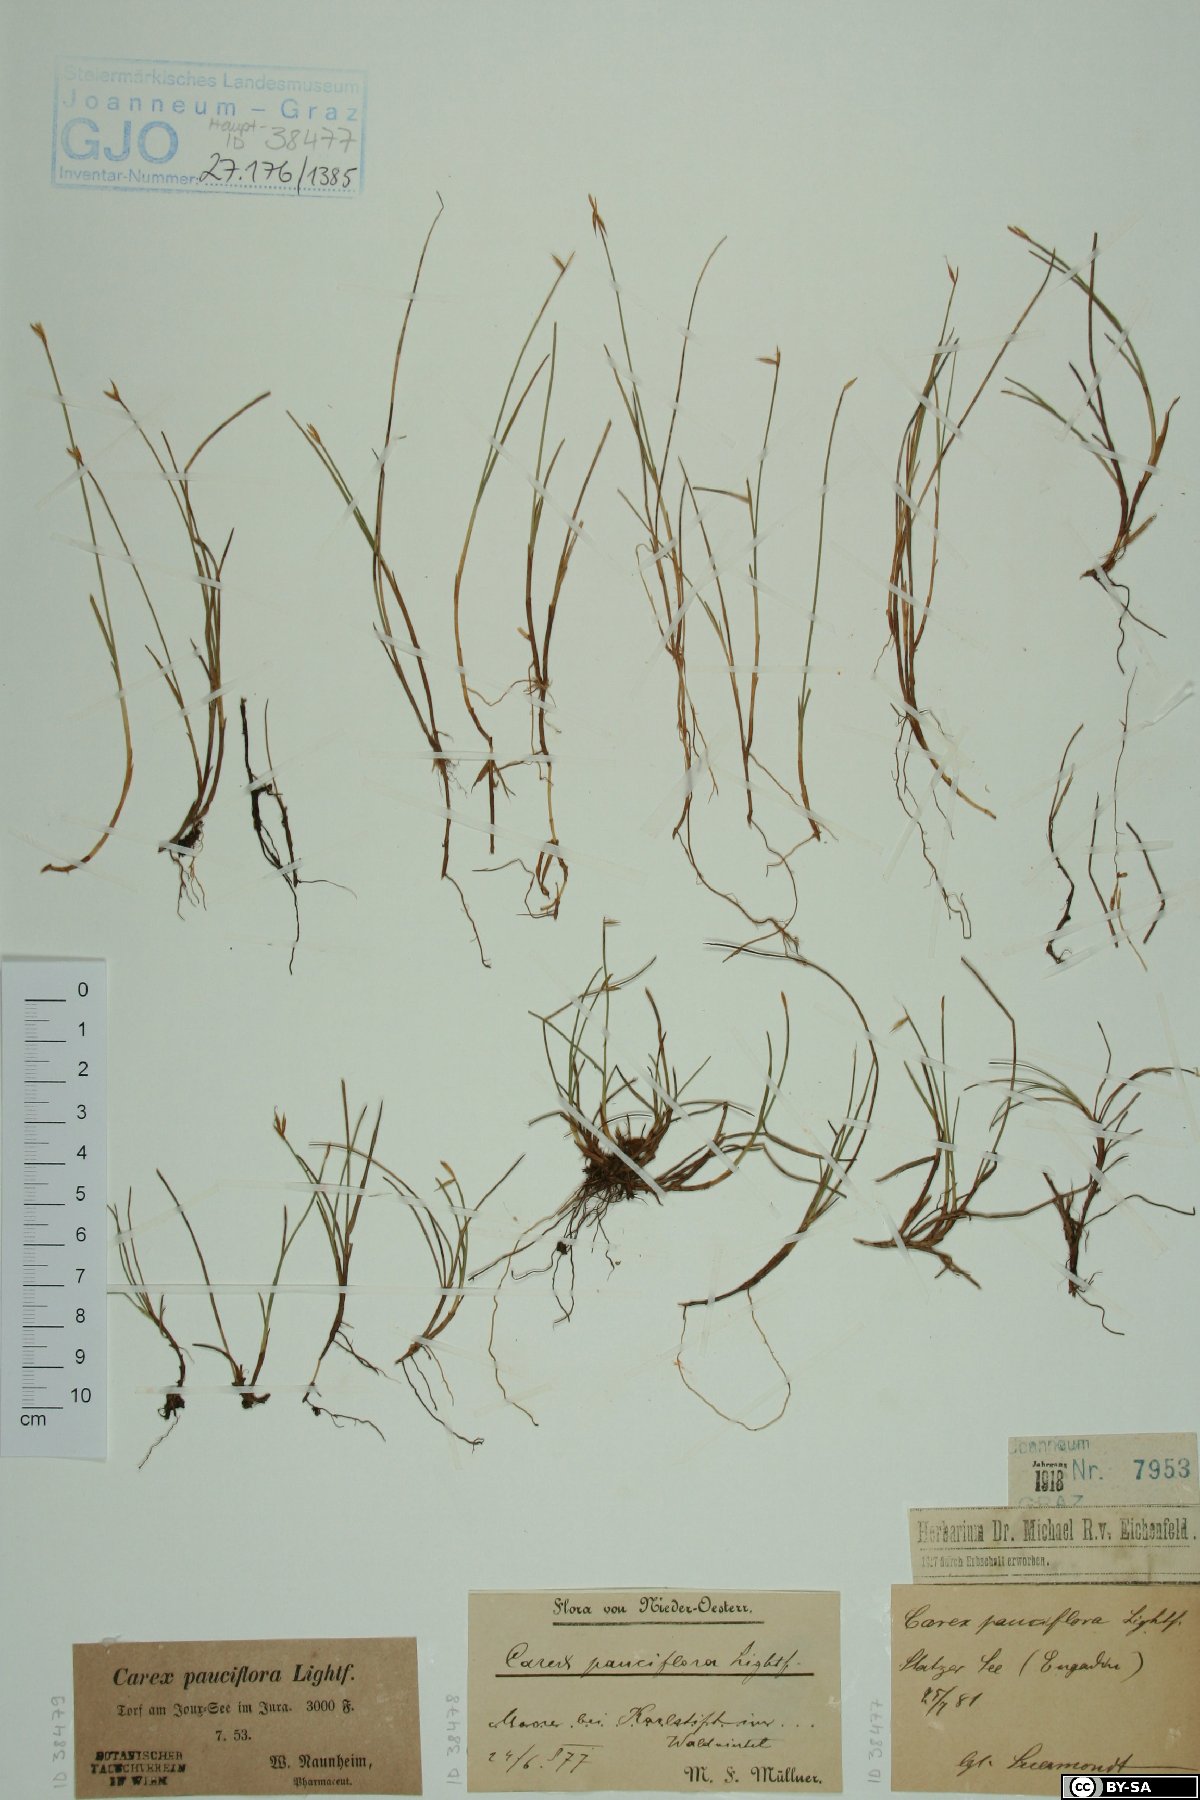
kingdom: Plantae
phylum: Tracheophyta
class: Liliopsida
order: Poales
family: Cyperaceae
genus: Carex
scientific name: Carex pauciflora
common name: Few-flowered sedge
